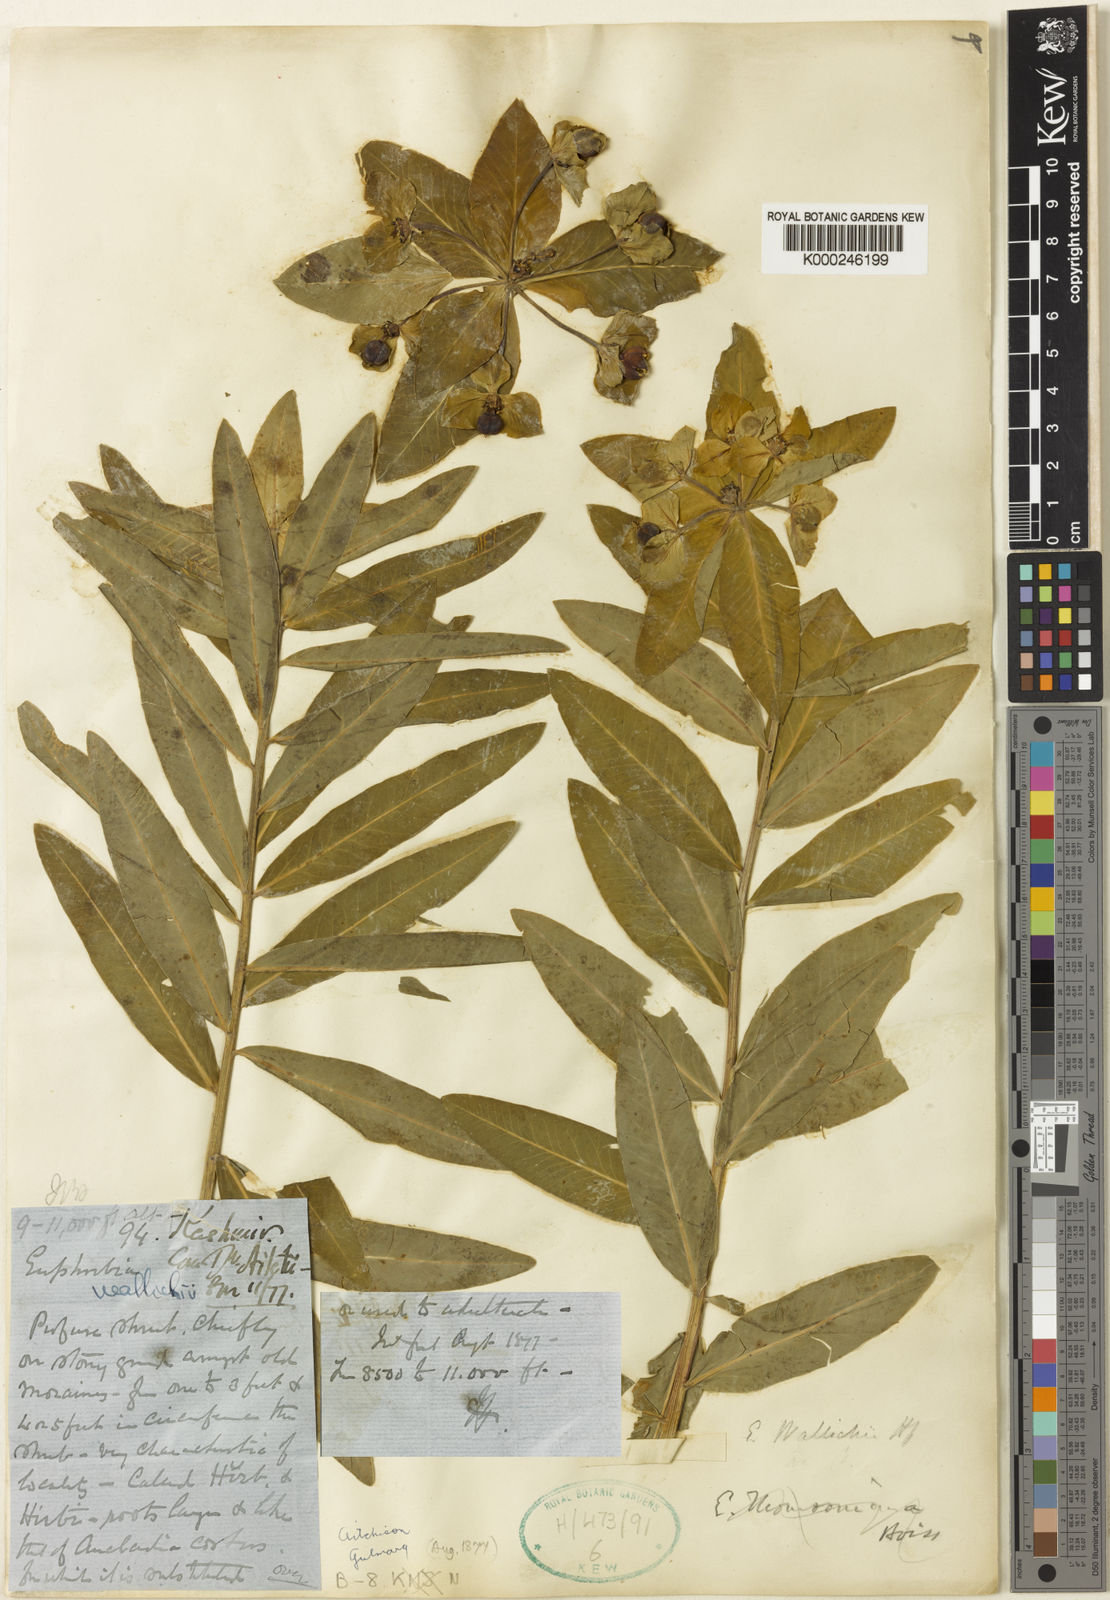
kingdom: Plantae
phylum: Tracheophyta
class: Magnoliopsida
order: Malpighiales
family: Euphorbiaceae
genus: Euphorbia
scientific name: Euphorbia wallichii
